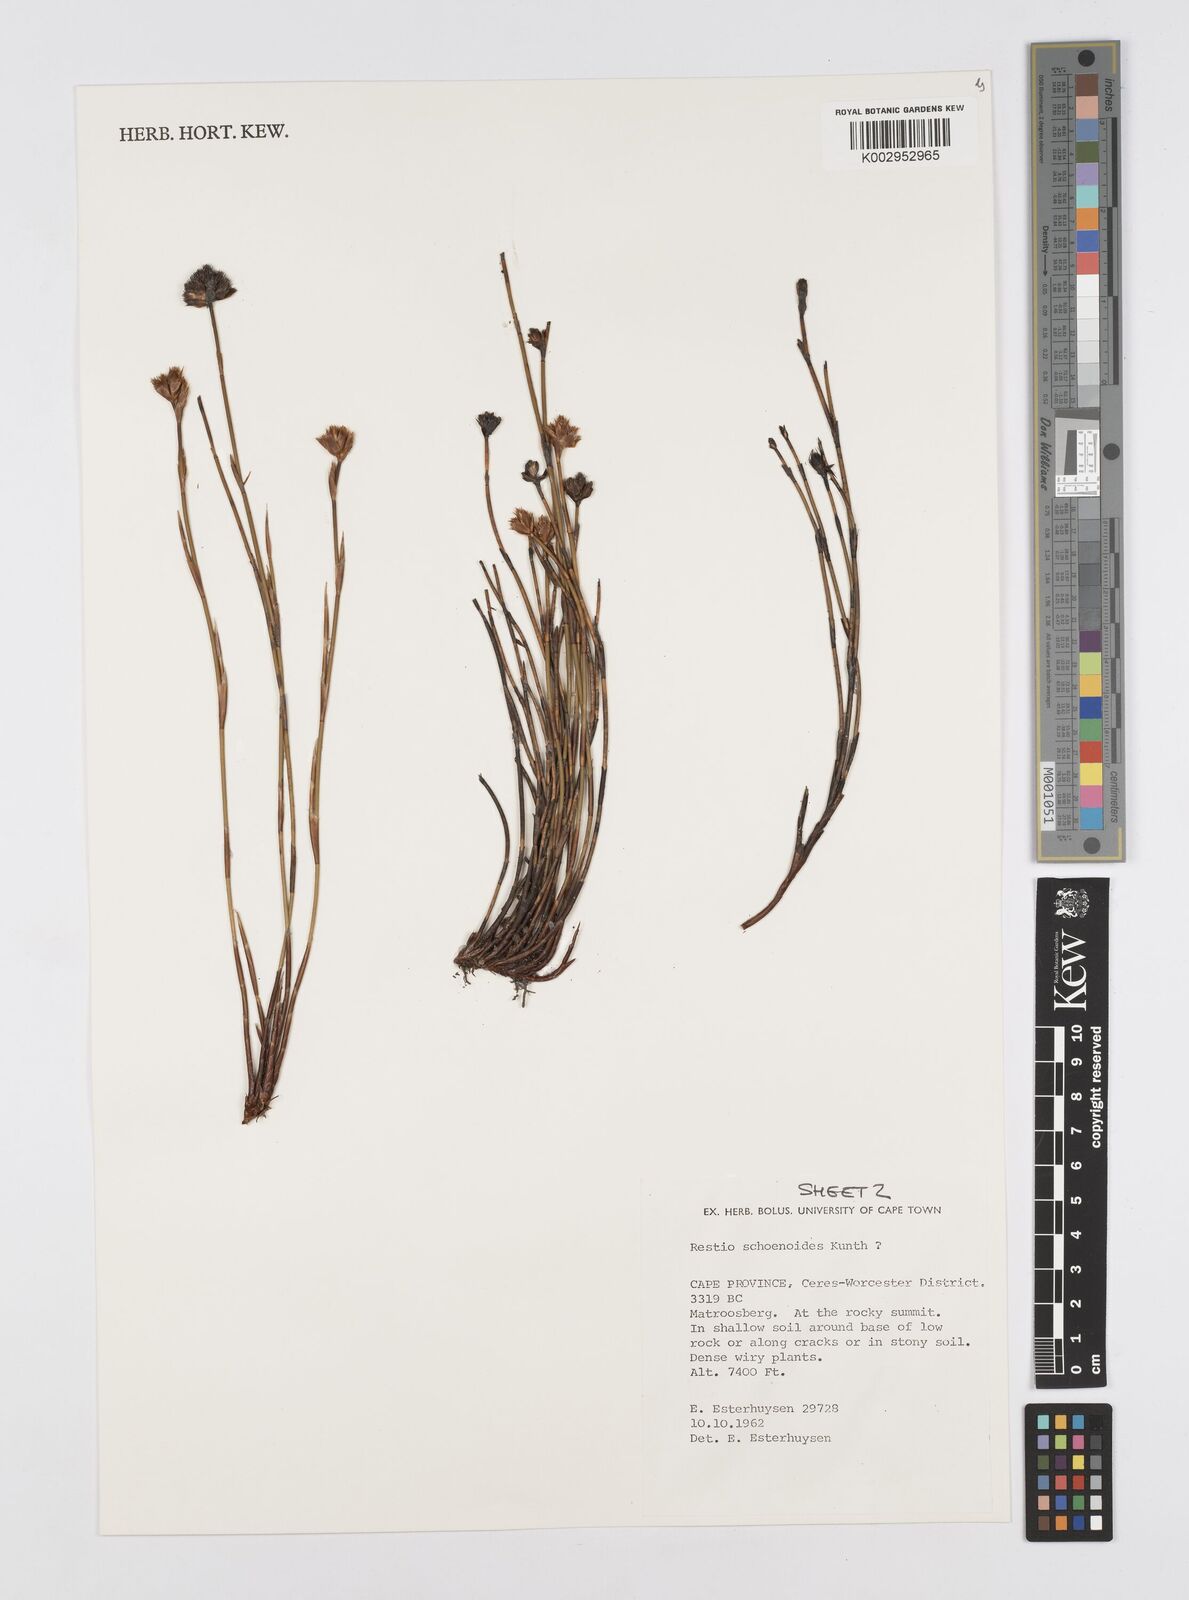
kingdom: Plantae
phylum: Tracheophyta
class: Liliopsida
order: Poales
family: Restionaceae
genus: Restio
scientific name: Restio schoenoides
